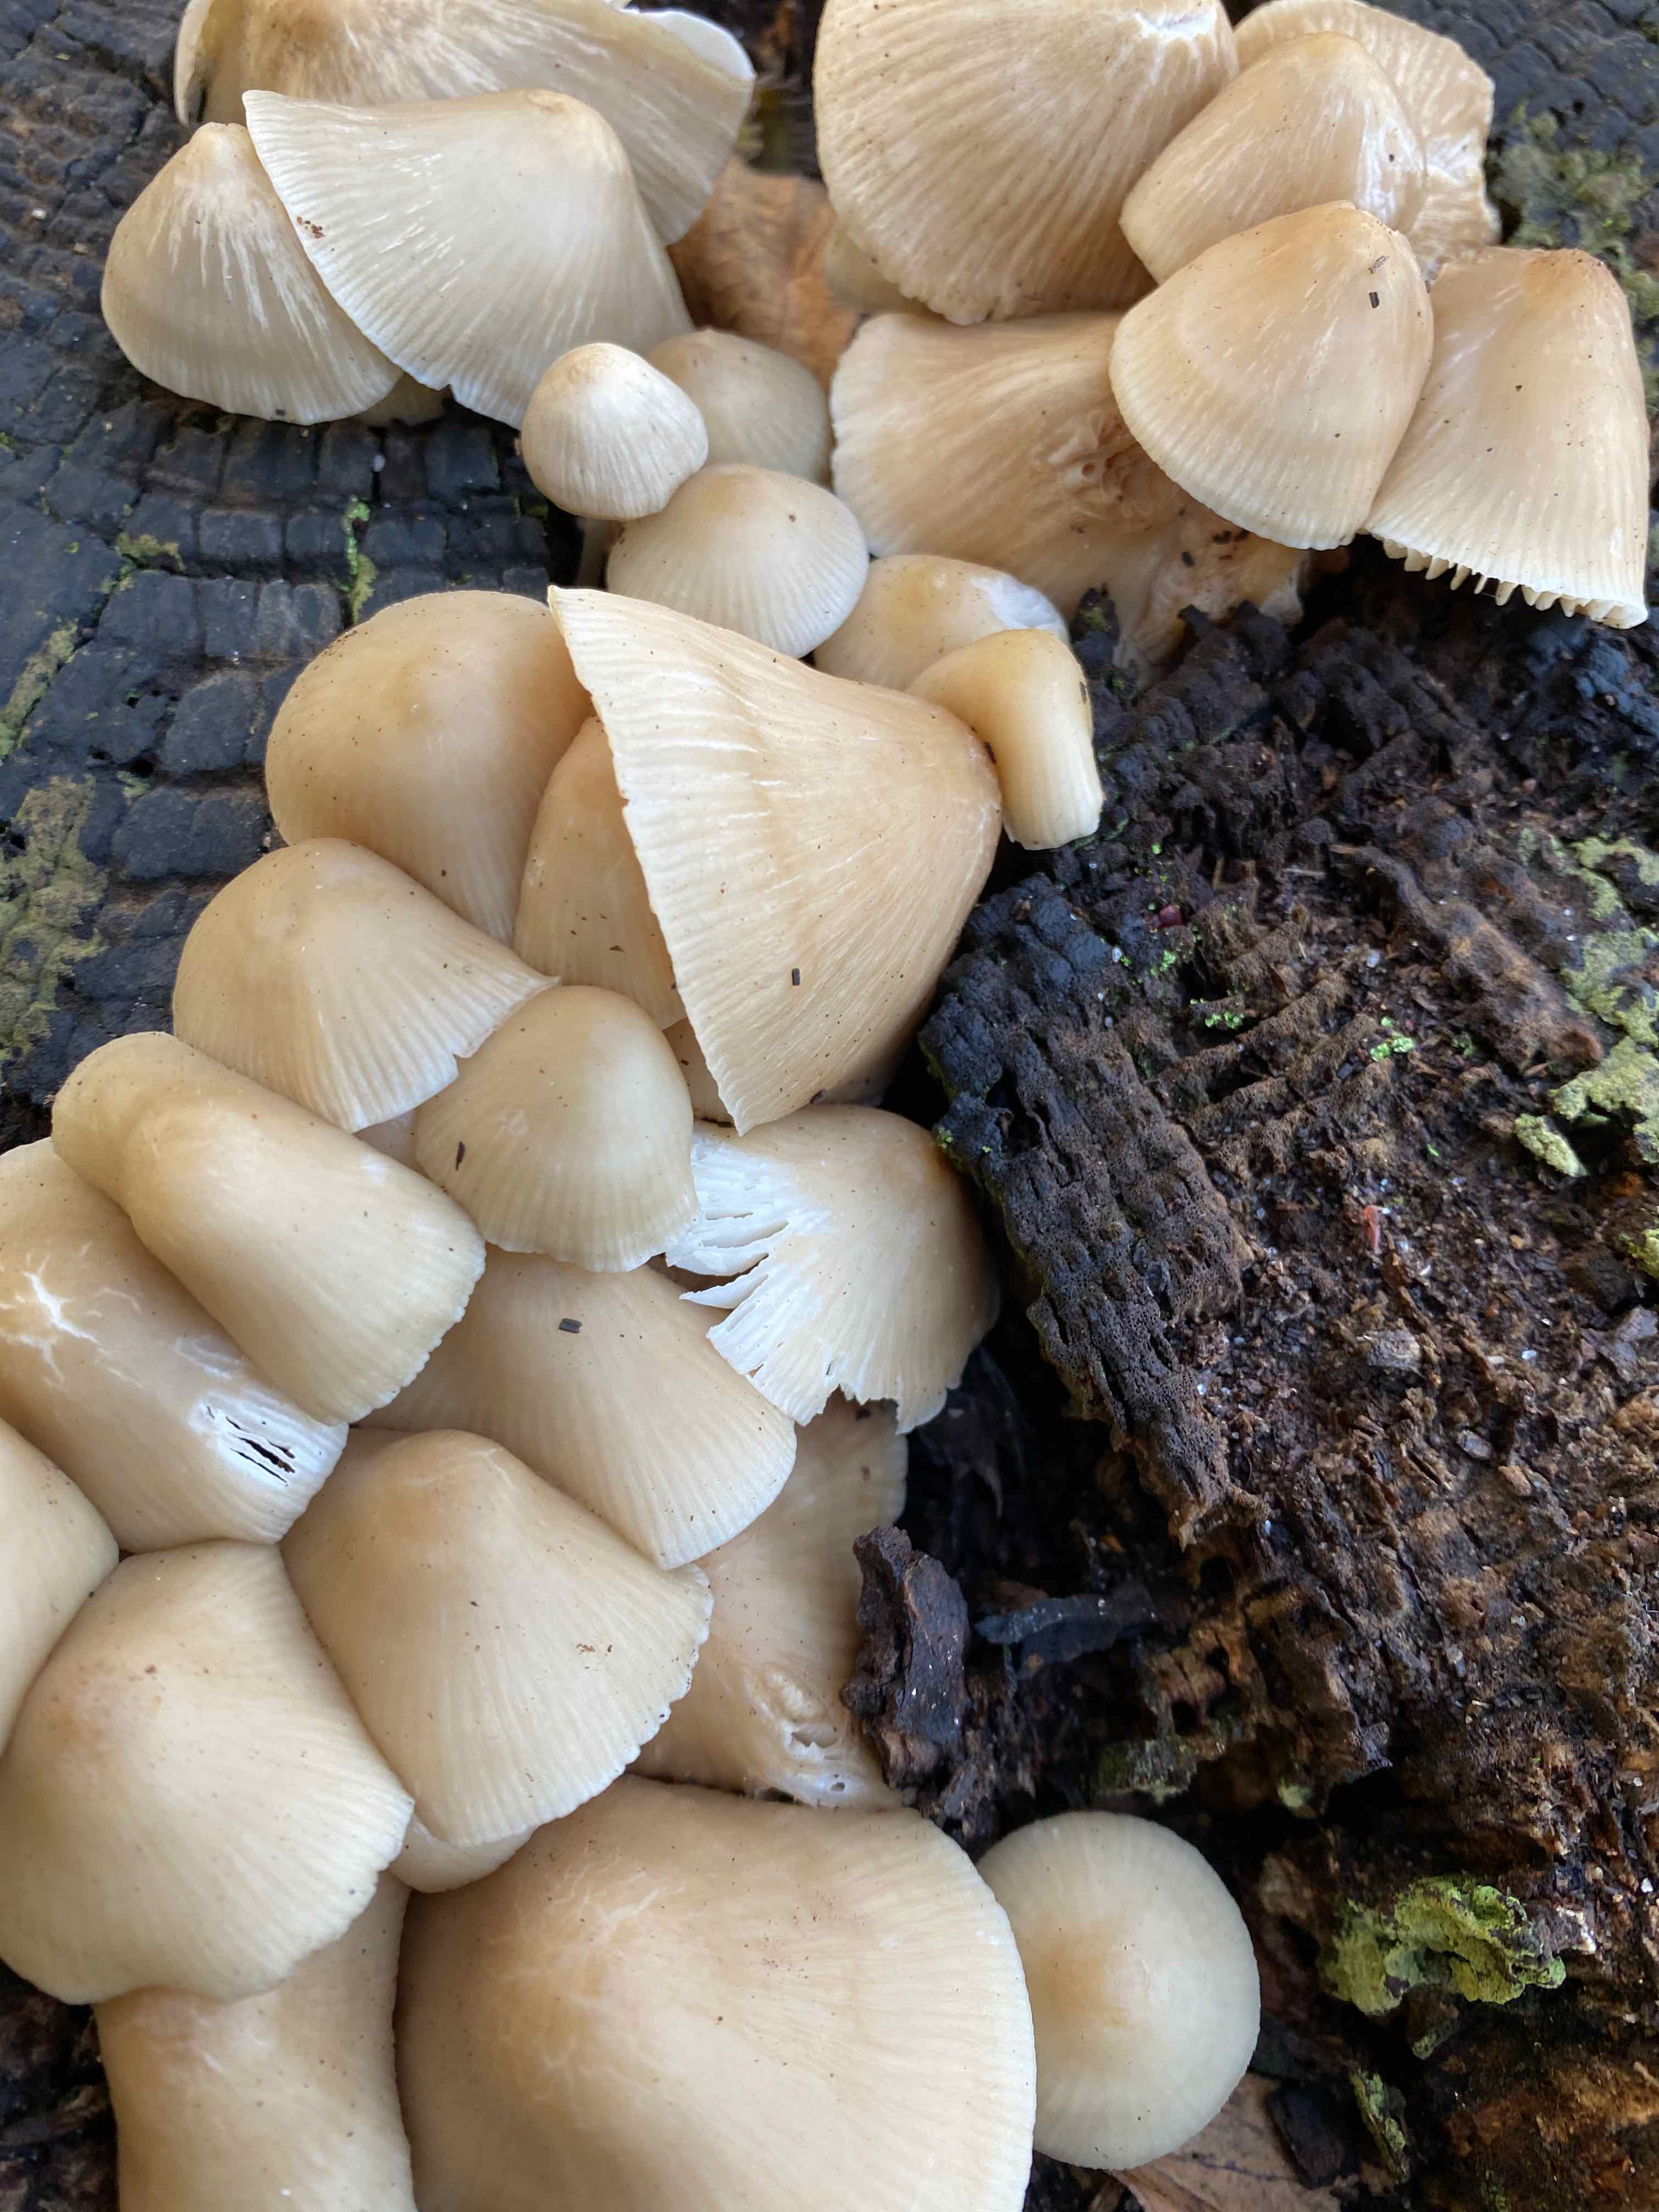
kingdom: Fungi
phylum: Basidiomycota
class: Agaricomycetes
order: Agaricales
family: Mycenaceae
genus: Mycena
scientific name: Mycena galericulata
